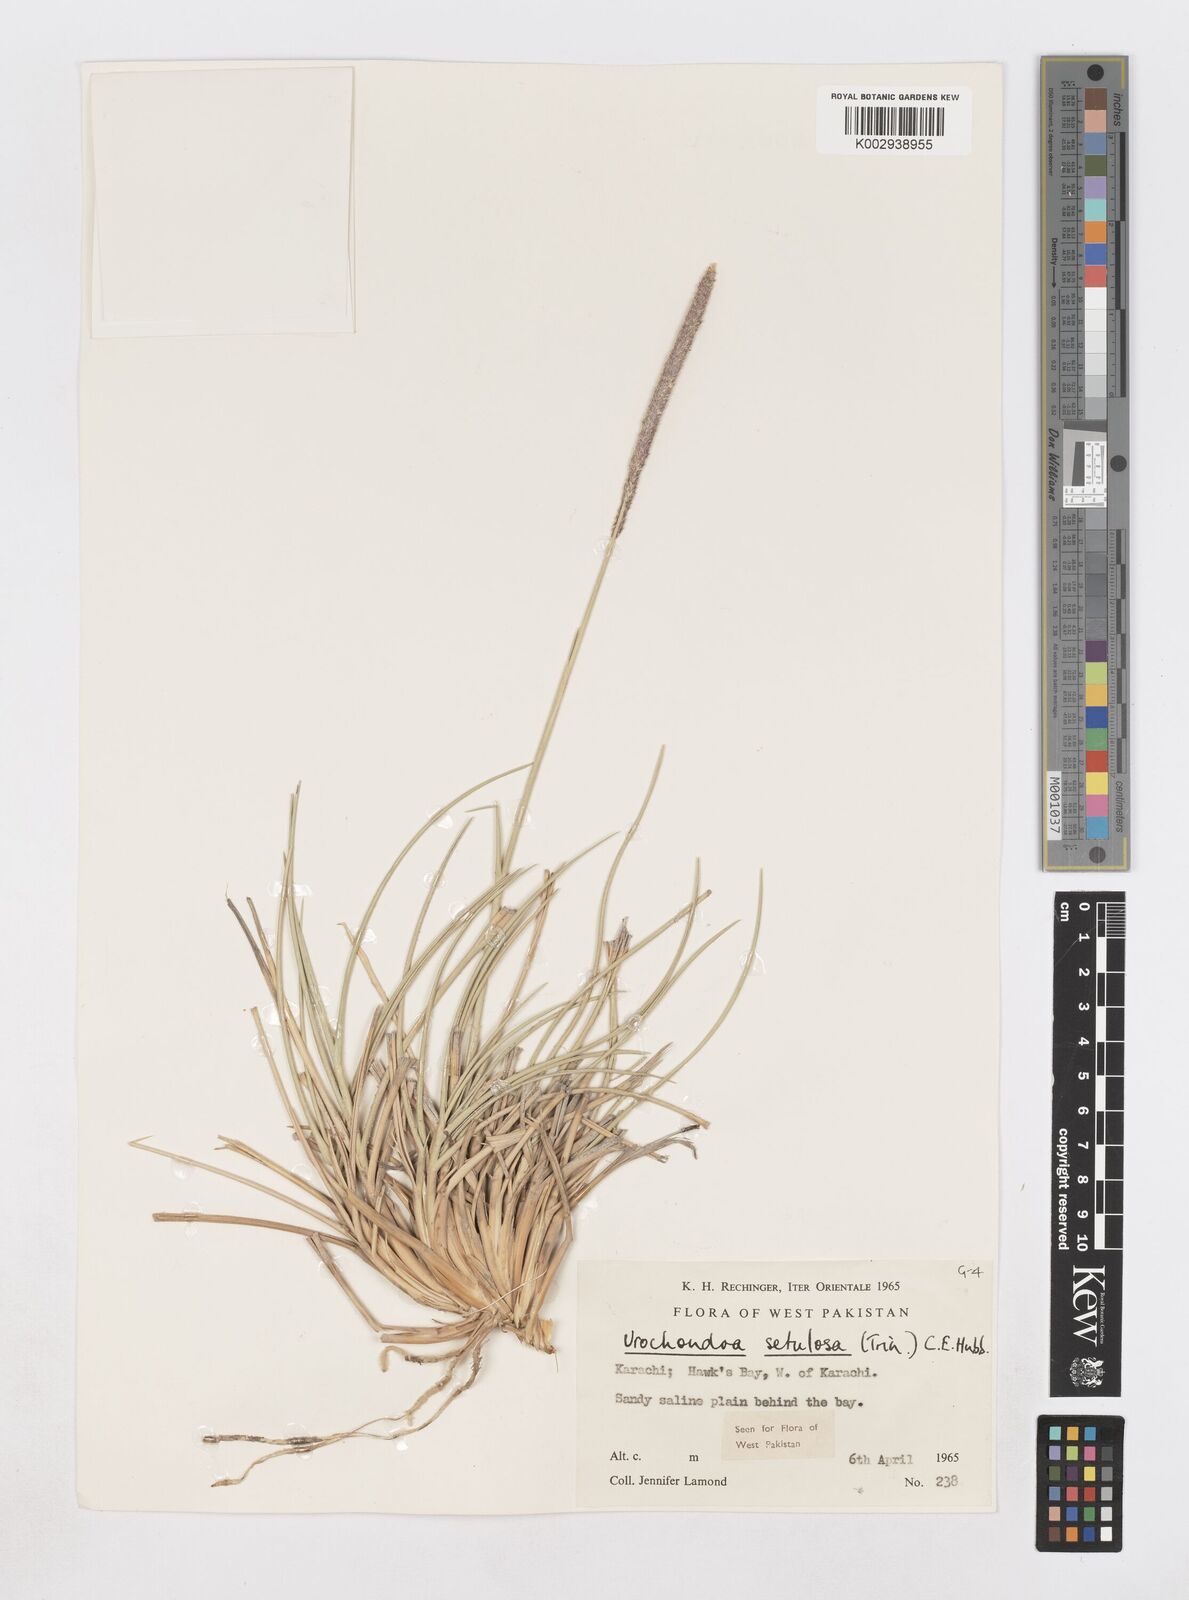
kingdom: Plantae
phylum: Tracheophyta
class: Liliopsida
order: Poales
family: Poaceae
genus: Urochondra
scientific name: Urochondra setulosa
